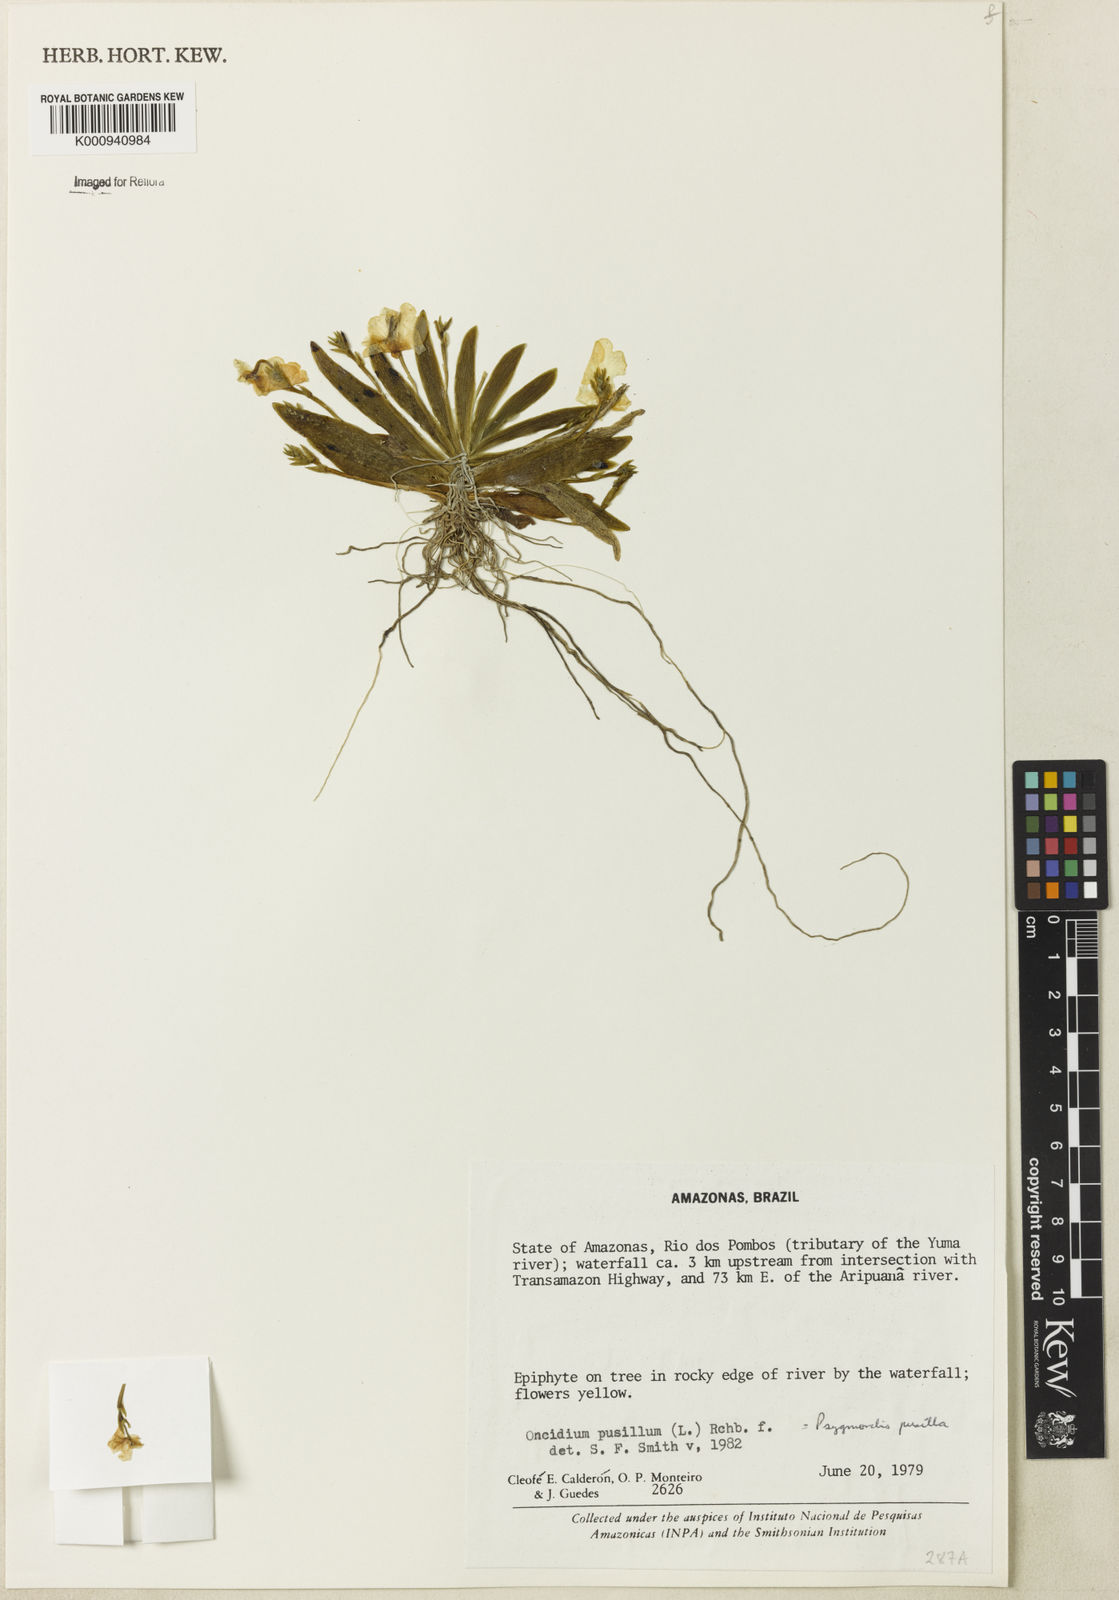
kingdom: Plantae
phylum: Tracheophyta
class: Liliopsida
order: Asparagales
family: Orchidaceae
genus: Erycina
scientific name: Erycina pusilla
